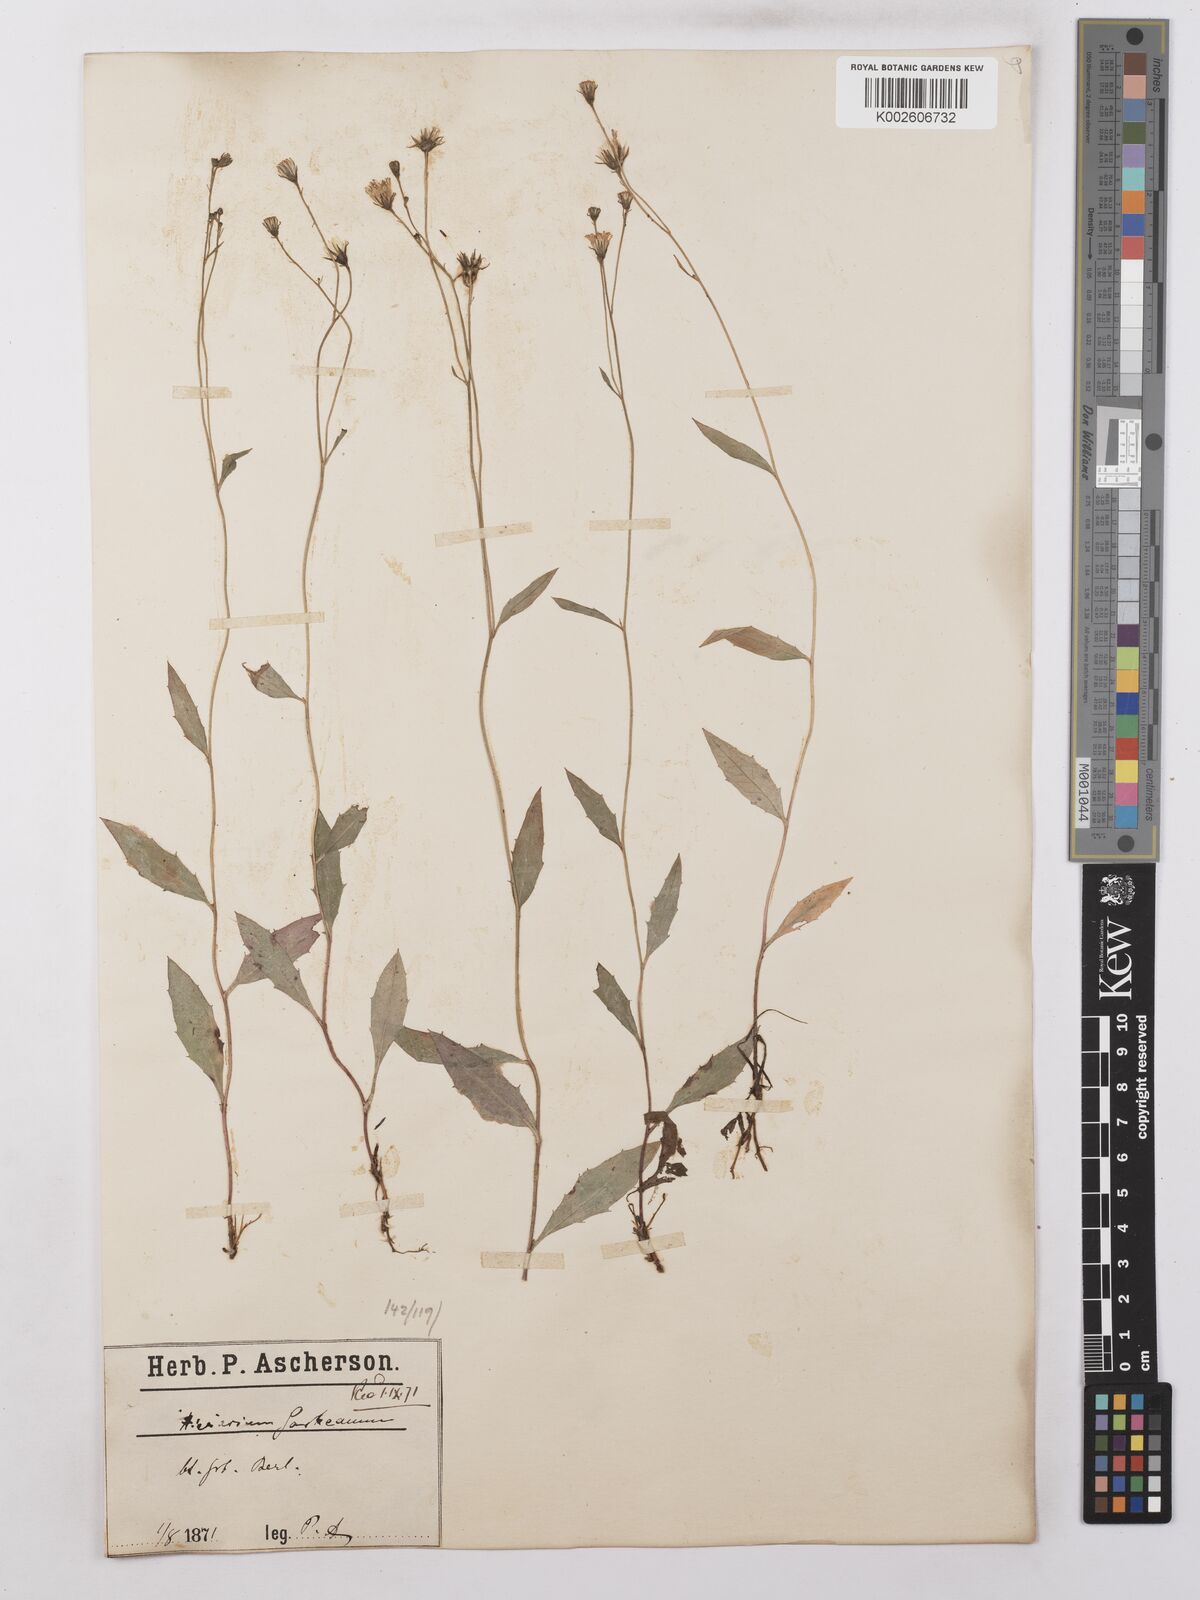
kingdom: Plantae
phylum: Tracheophyta
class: Magnoliopsida
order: Asterales
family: Asteraceae
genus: Hieracium
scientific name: Hieracium lachenalii
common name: Common hawkweed
